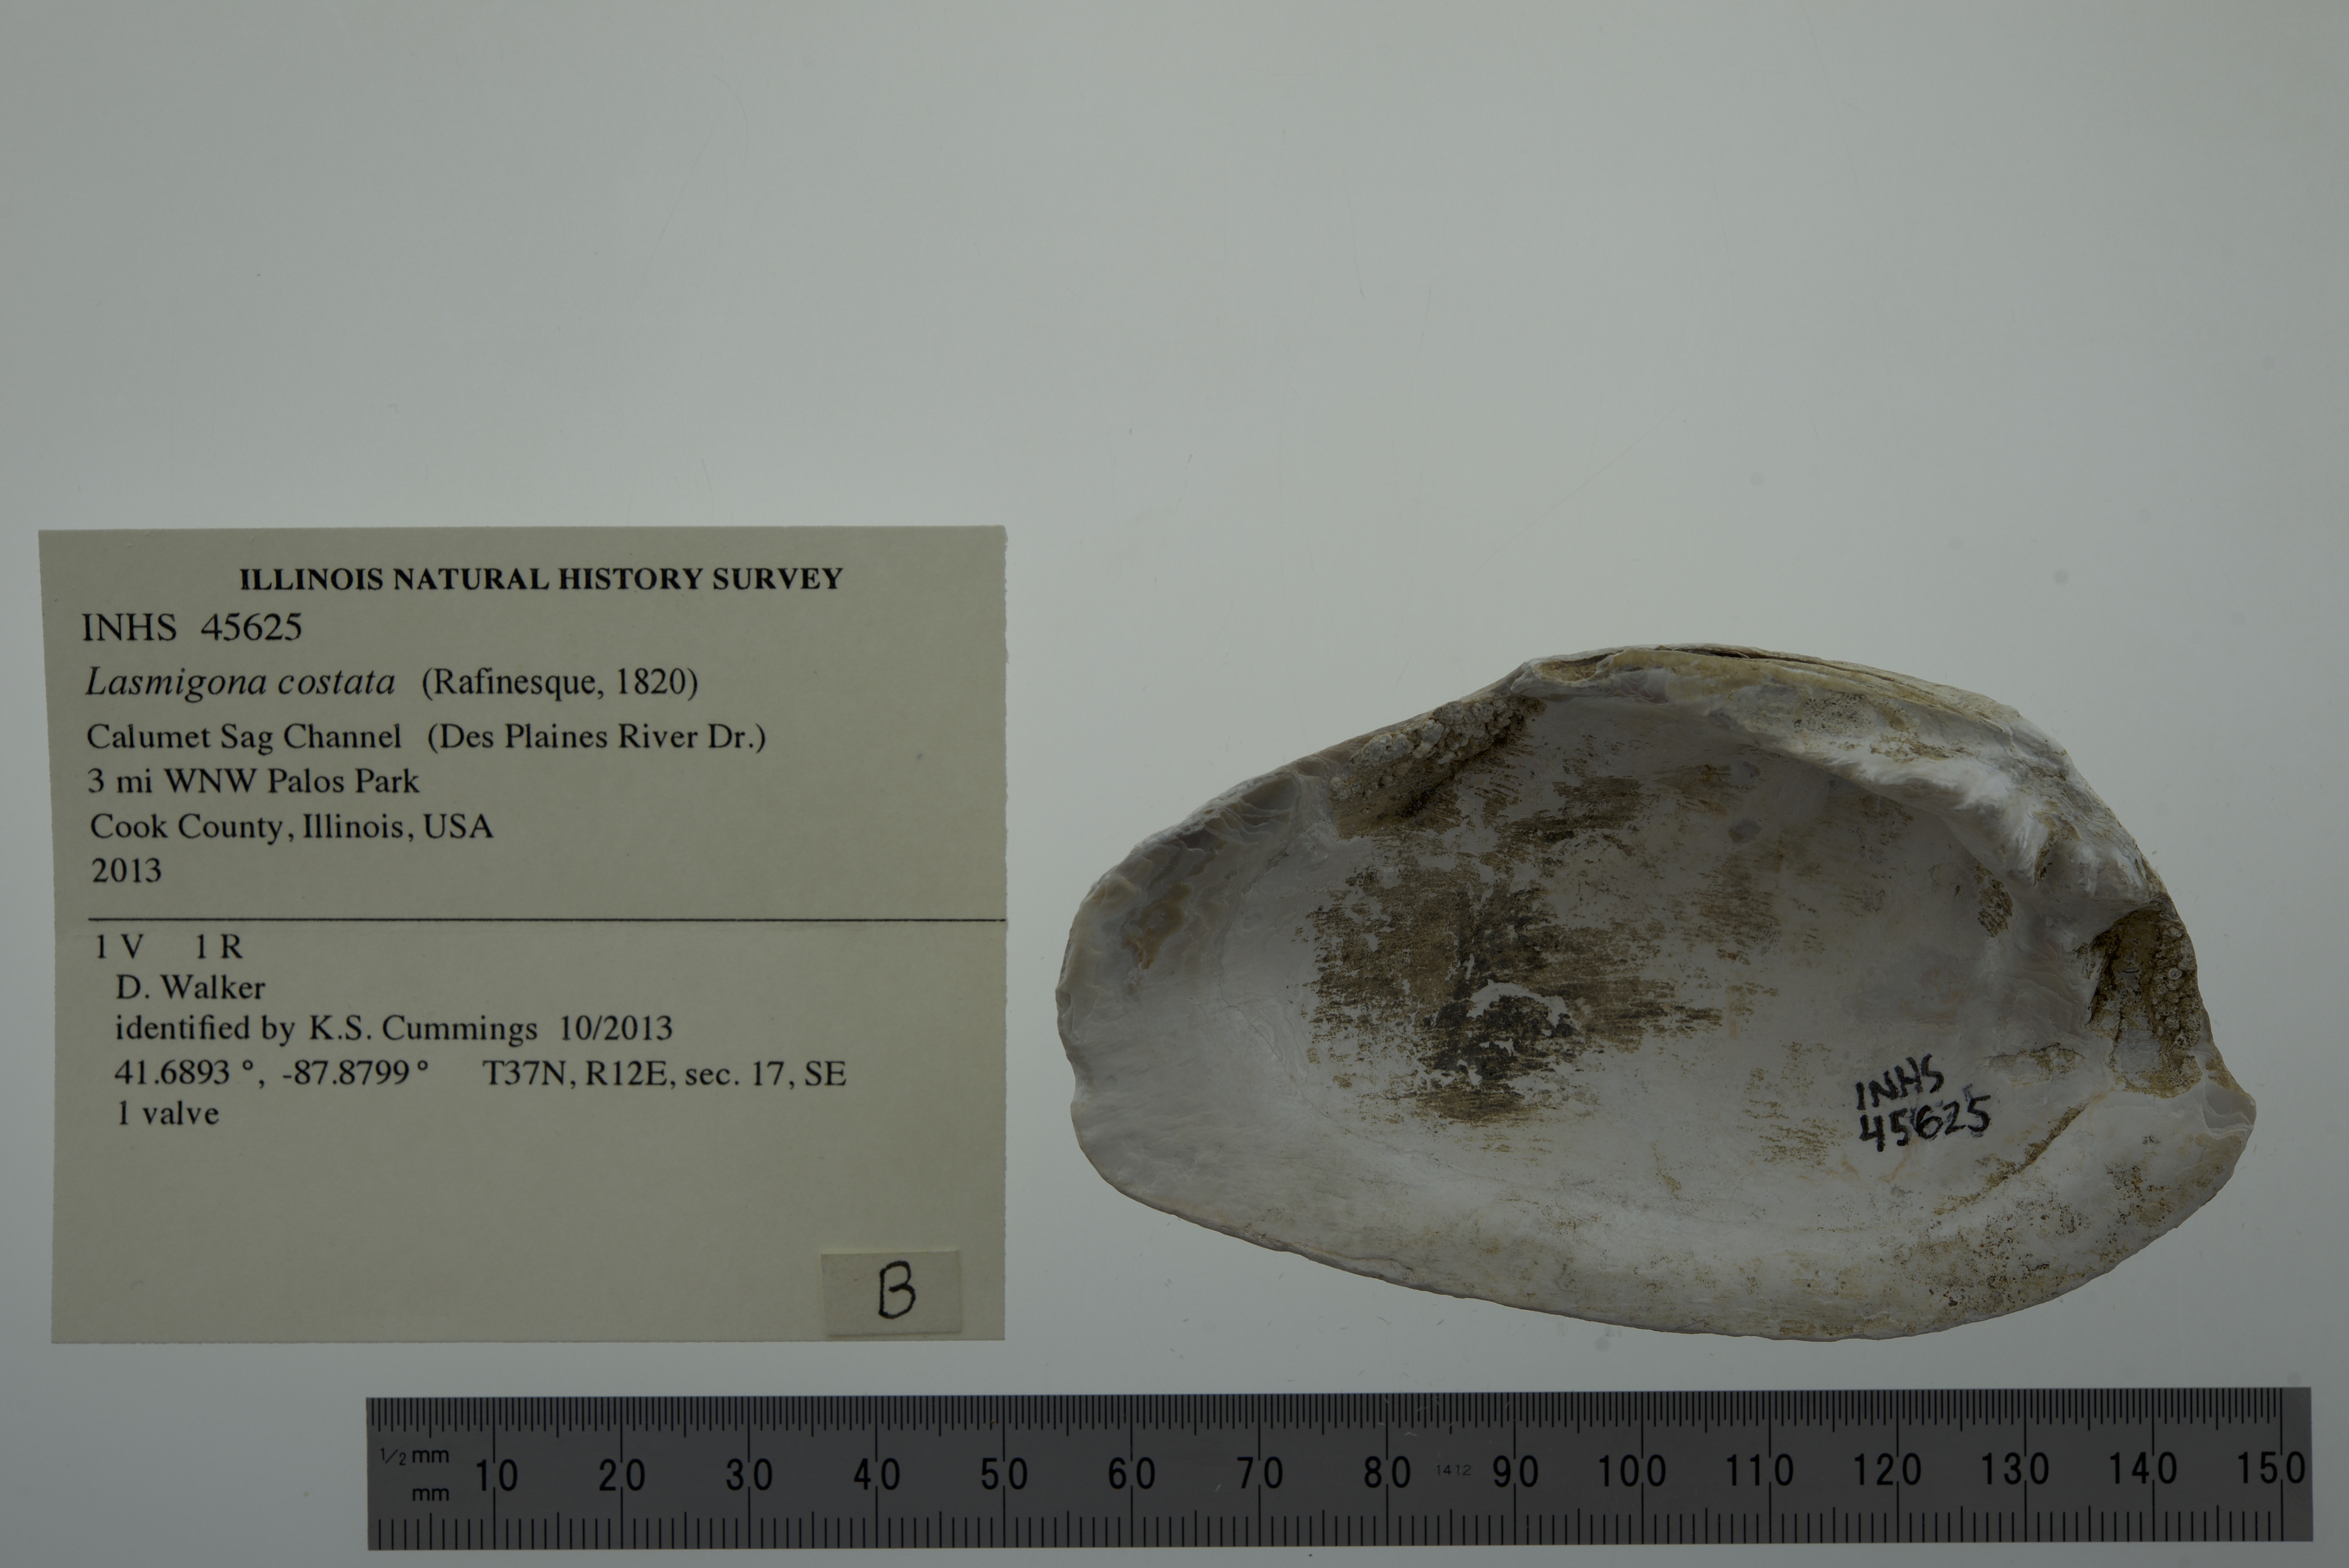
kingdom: Animalia
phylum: Mollusca
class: Bivalvia
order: Unionida
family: Unionidae
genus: Lasmigona
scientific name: Lasmigona costata
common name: Flutedshell
